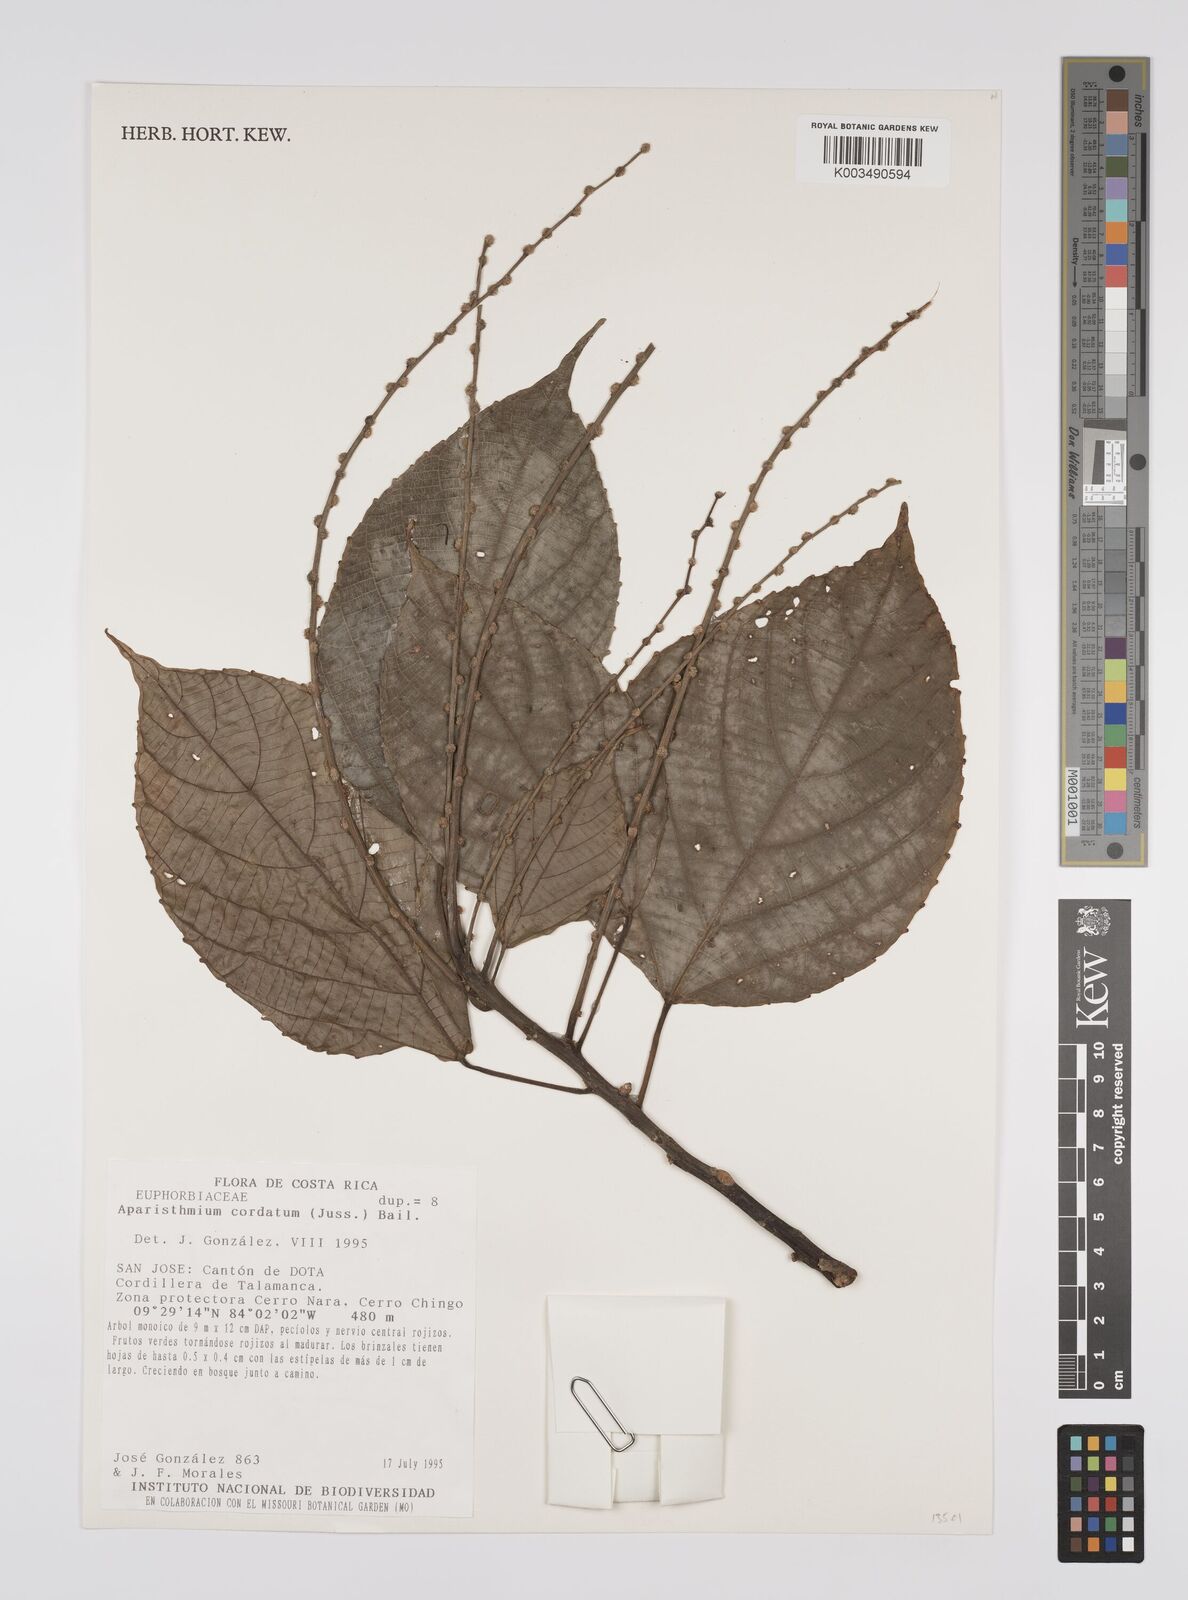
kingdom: Plantae
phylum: Tracheophyta
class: Magnoliopsida
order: Malpighiales
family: Euphorbiaceae
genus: Aparisthmium
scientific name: Aparisthmium cordatum
